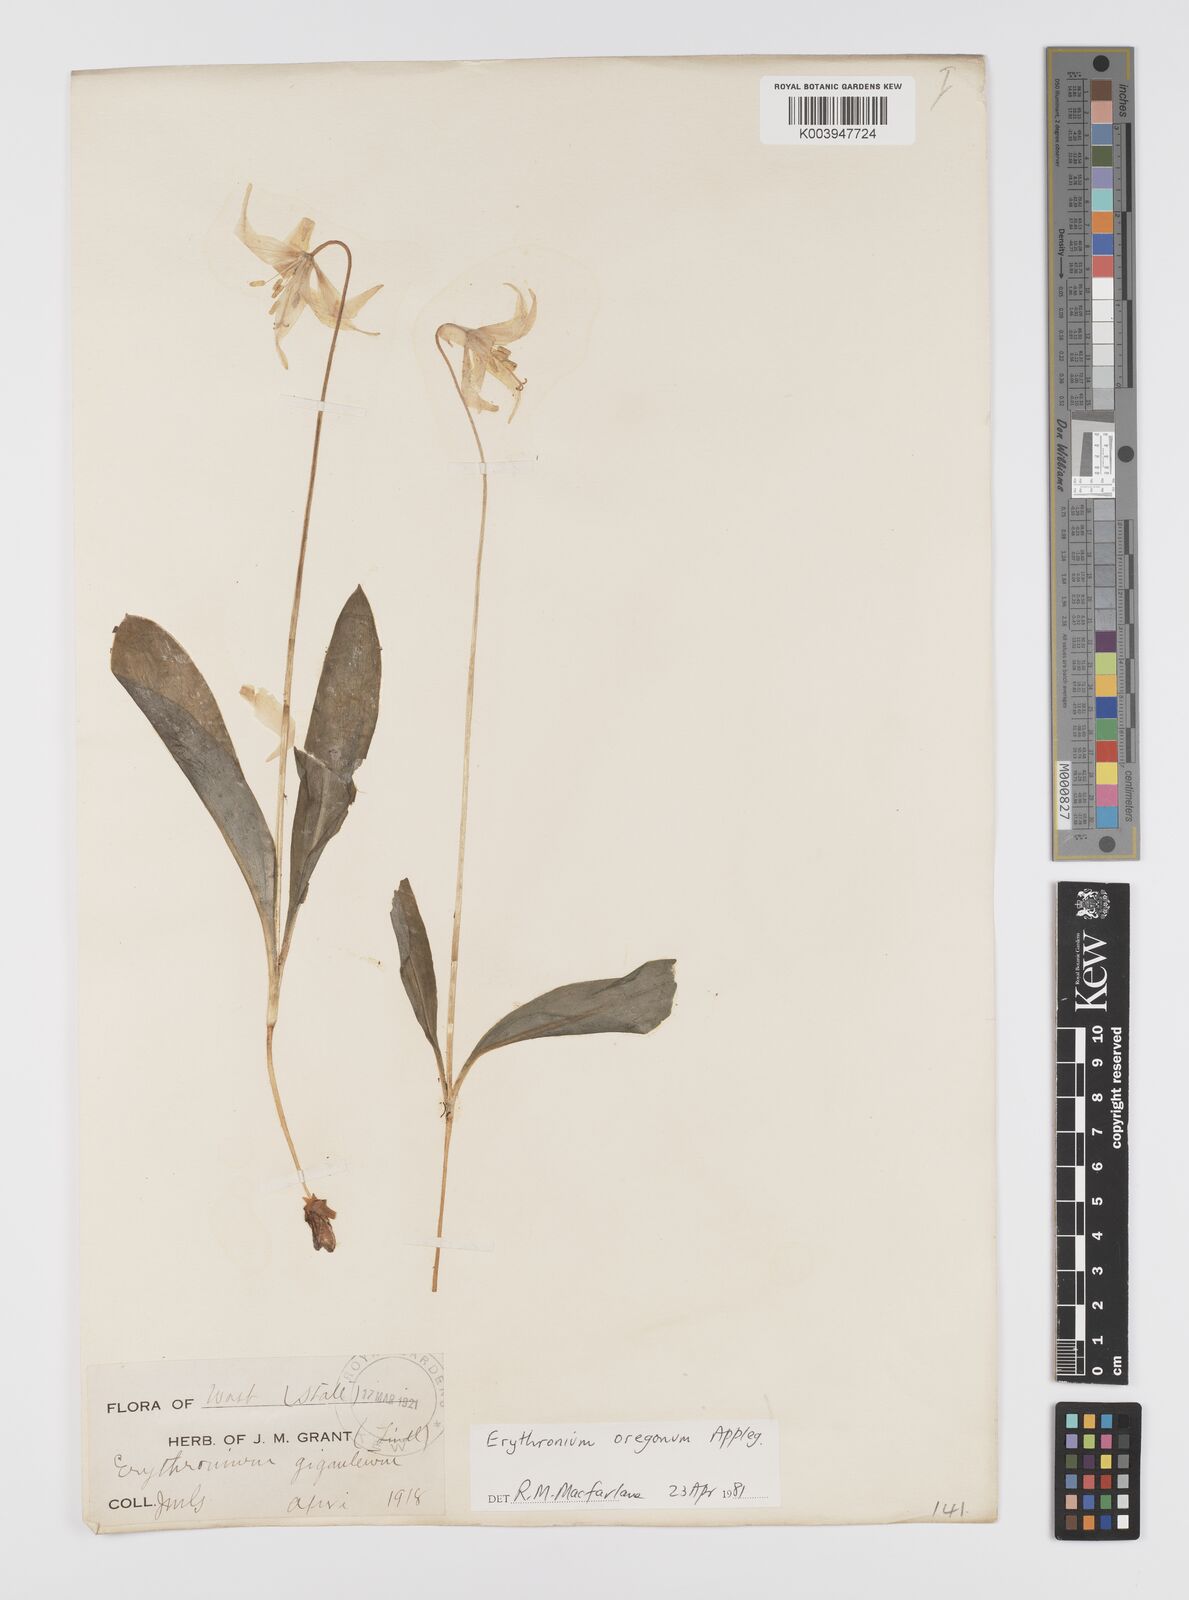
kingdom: Plantae
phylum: Tracheophyta
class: Liliopsida
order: Liliales
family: Liliaceae
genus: Erythronium
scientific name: Erythronium oregonum
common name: Giant adder's-tongue
